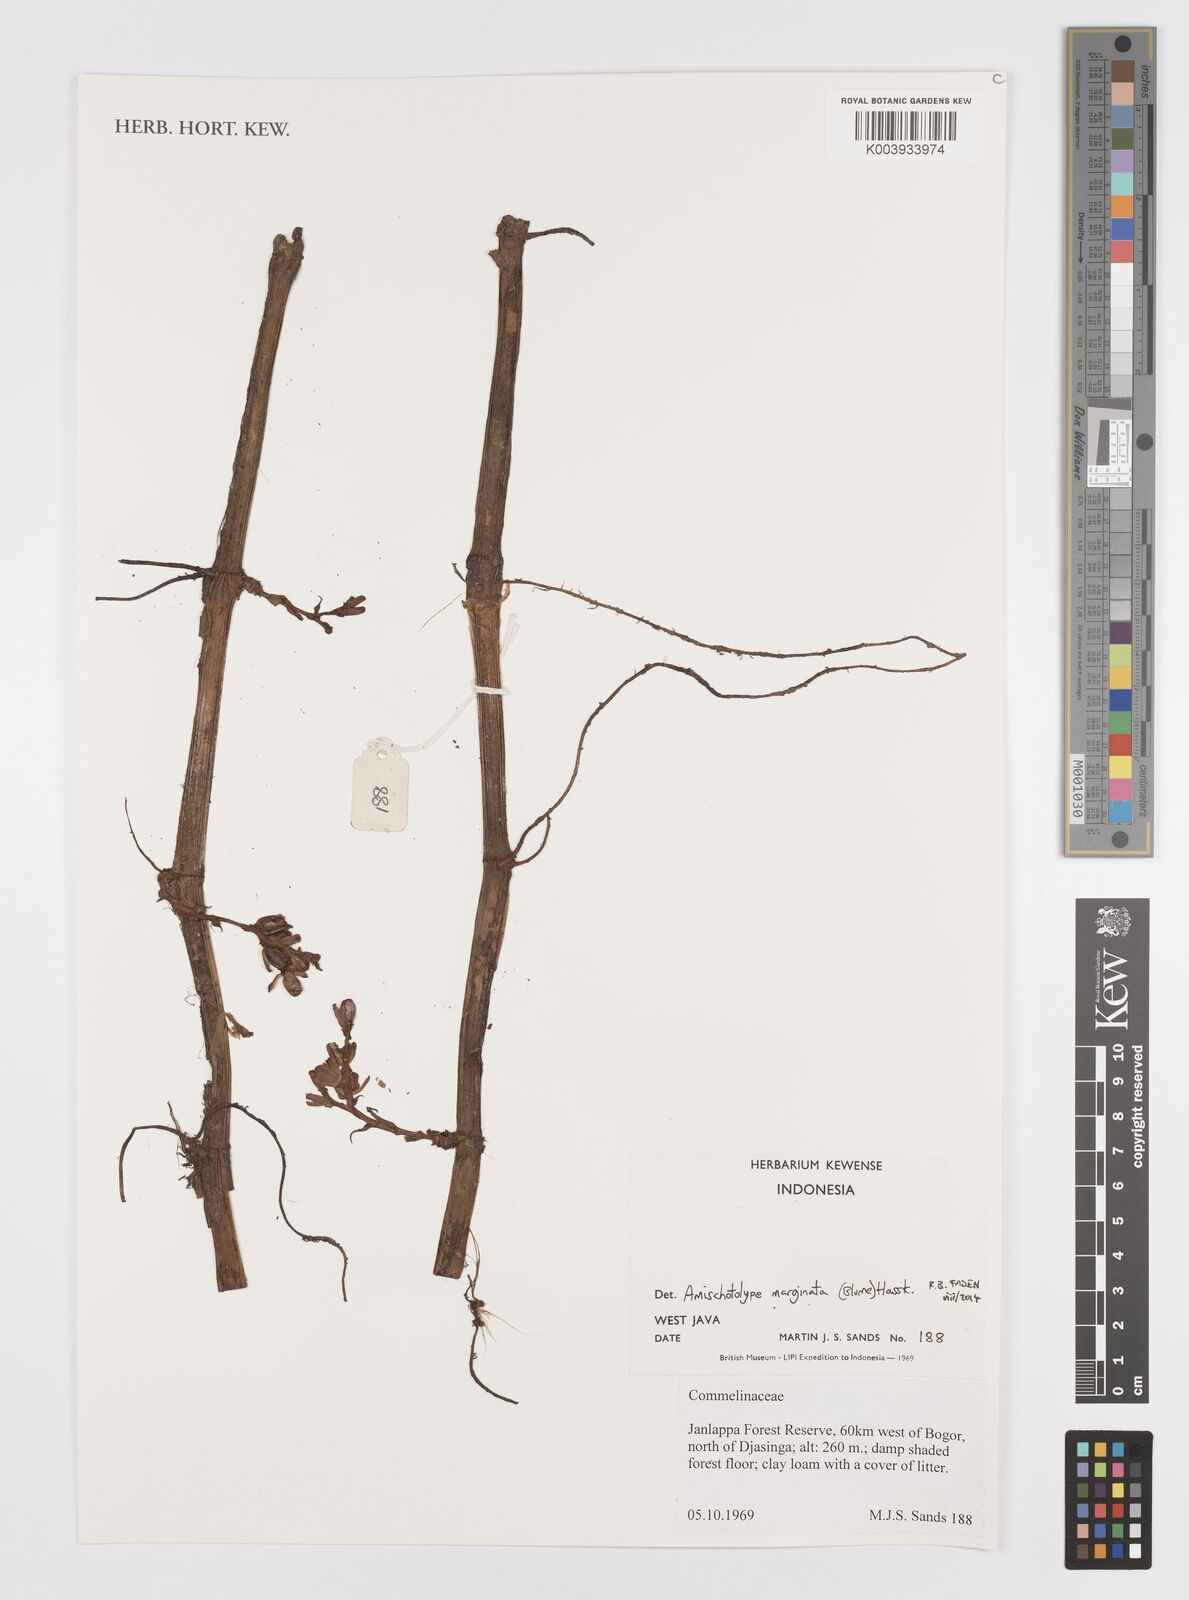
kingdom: Plantae
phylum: Tracheophyta
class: Liliopsida
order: Commelinales
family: Commelinaceae
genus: Amischotolype
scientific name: Amischotolype marginata
